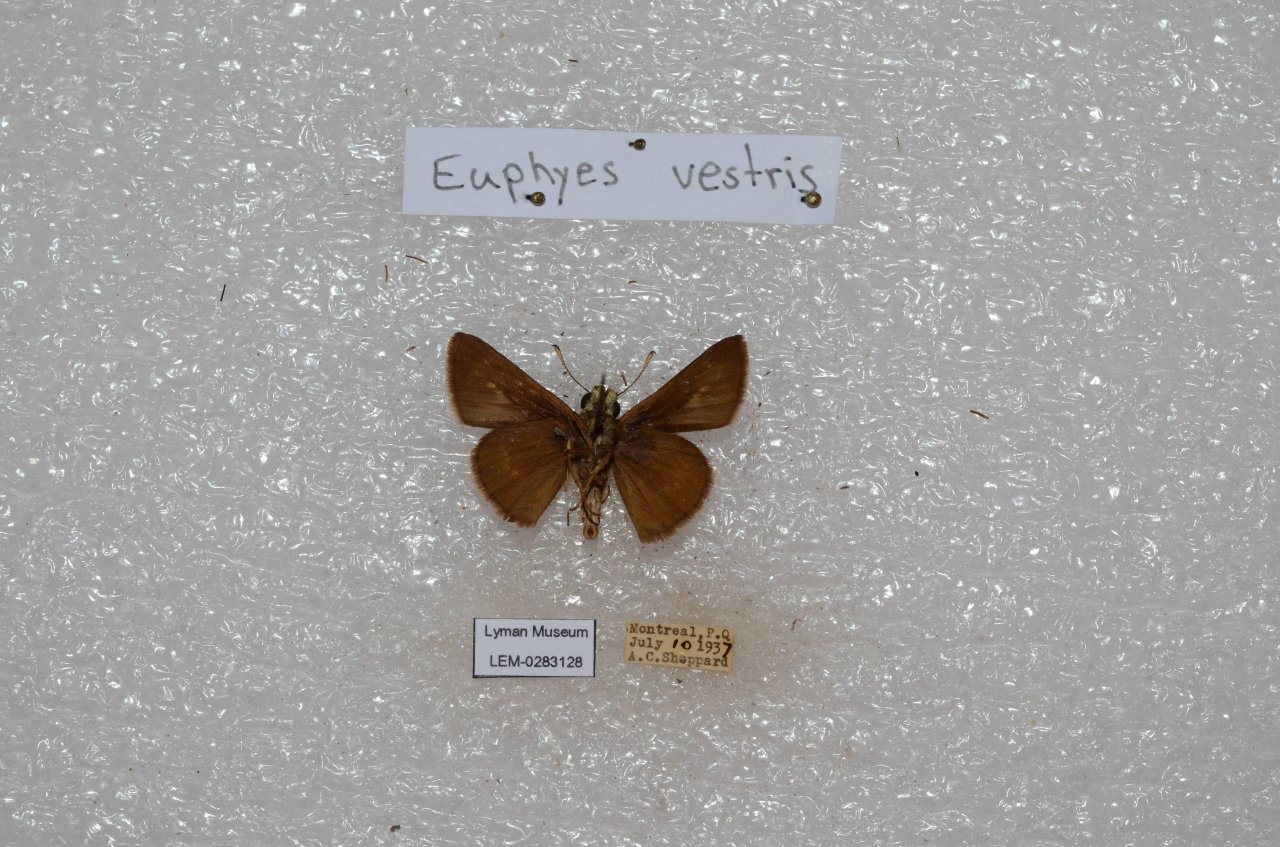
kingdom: Animalia
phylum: Arthropoda
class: Insecta
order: Lepidoptera
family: Hesperiidae
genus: Euphyes
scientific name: Euphyes vestris
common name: Dun Skipper
